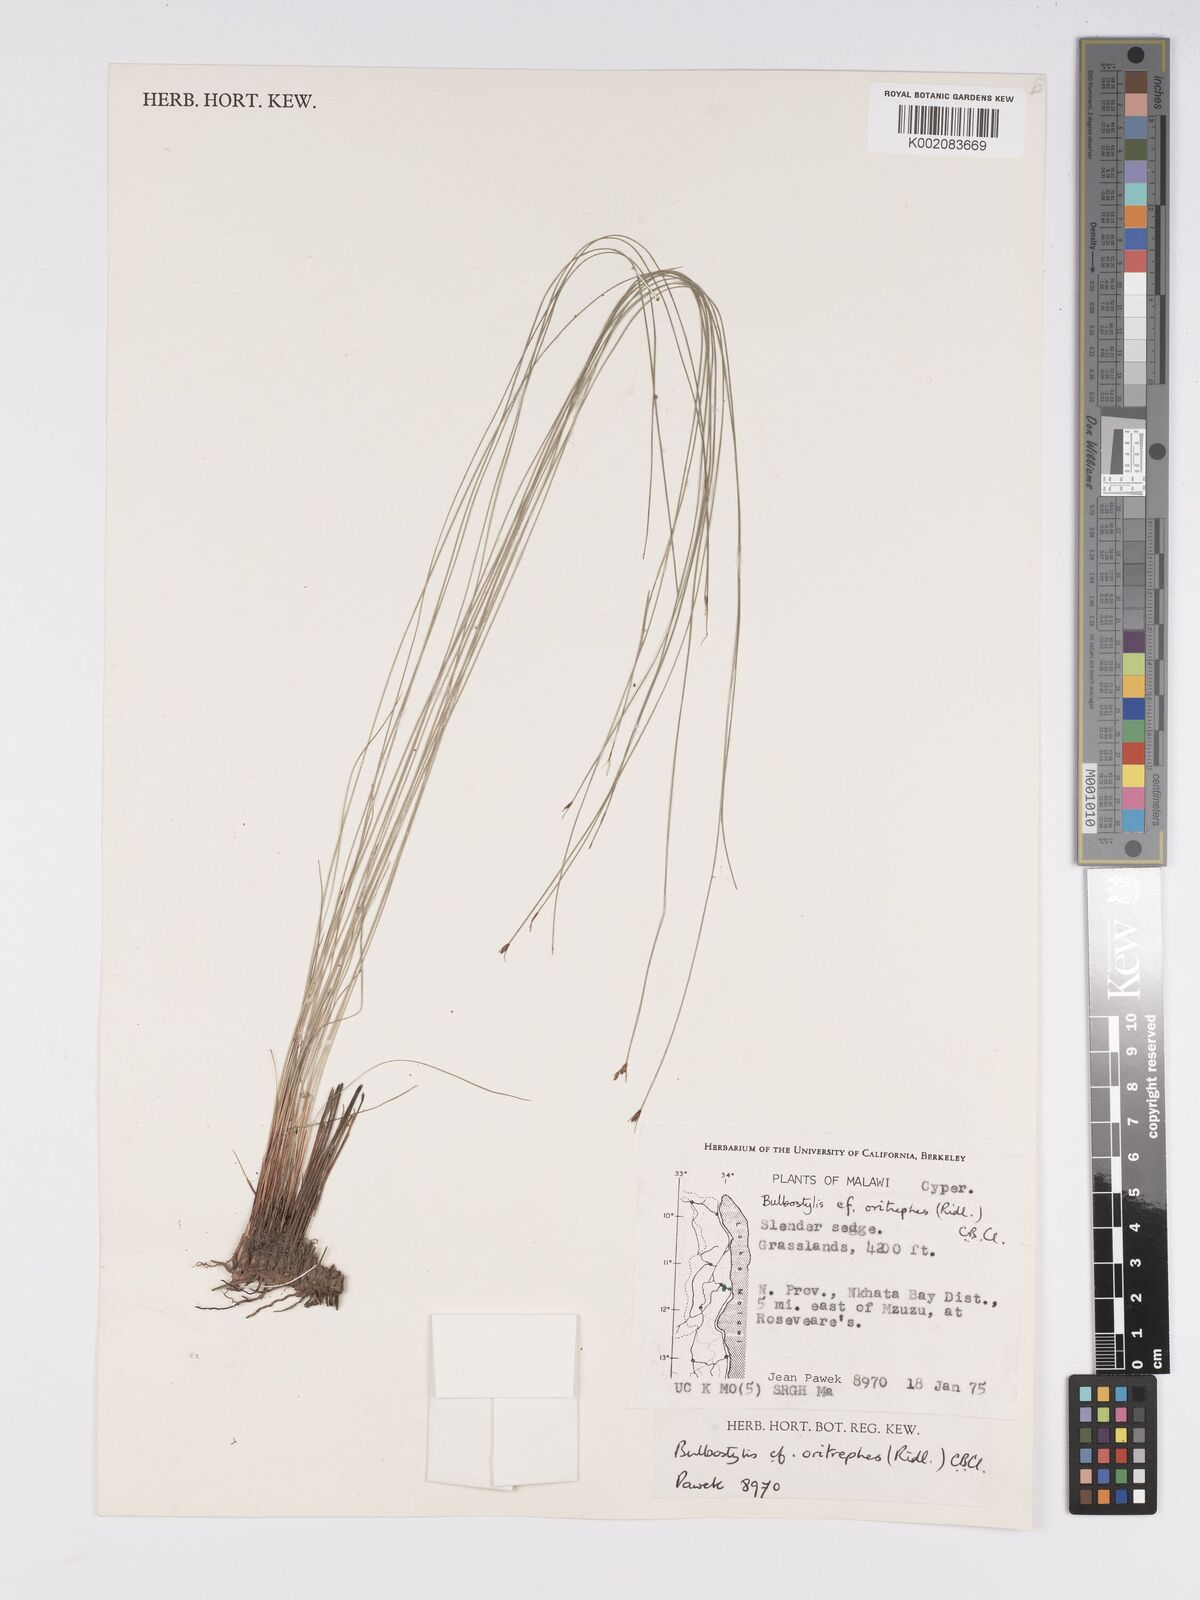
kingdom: Plantae
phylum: Tracheophyta
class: Liliopsida
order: Poales
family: Cyperaceae
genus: Bulbostylis
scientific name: Bulbostylis oritrephes
